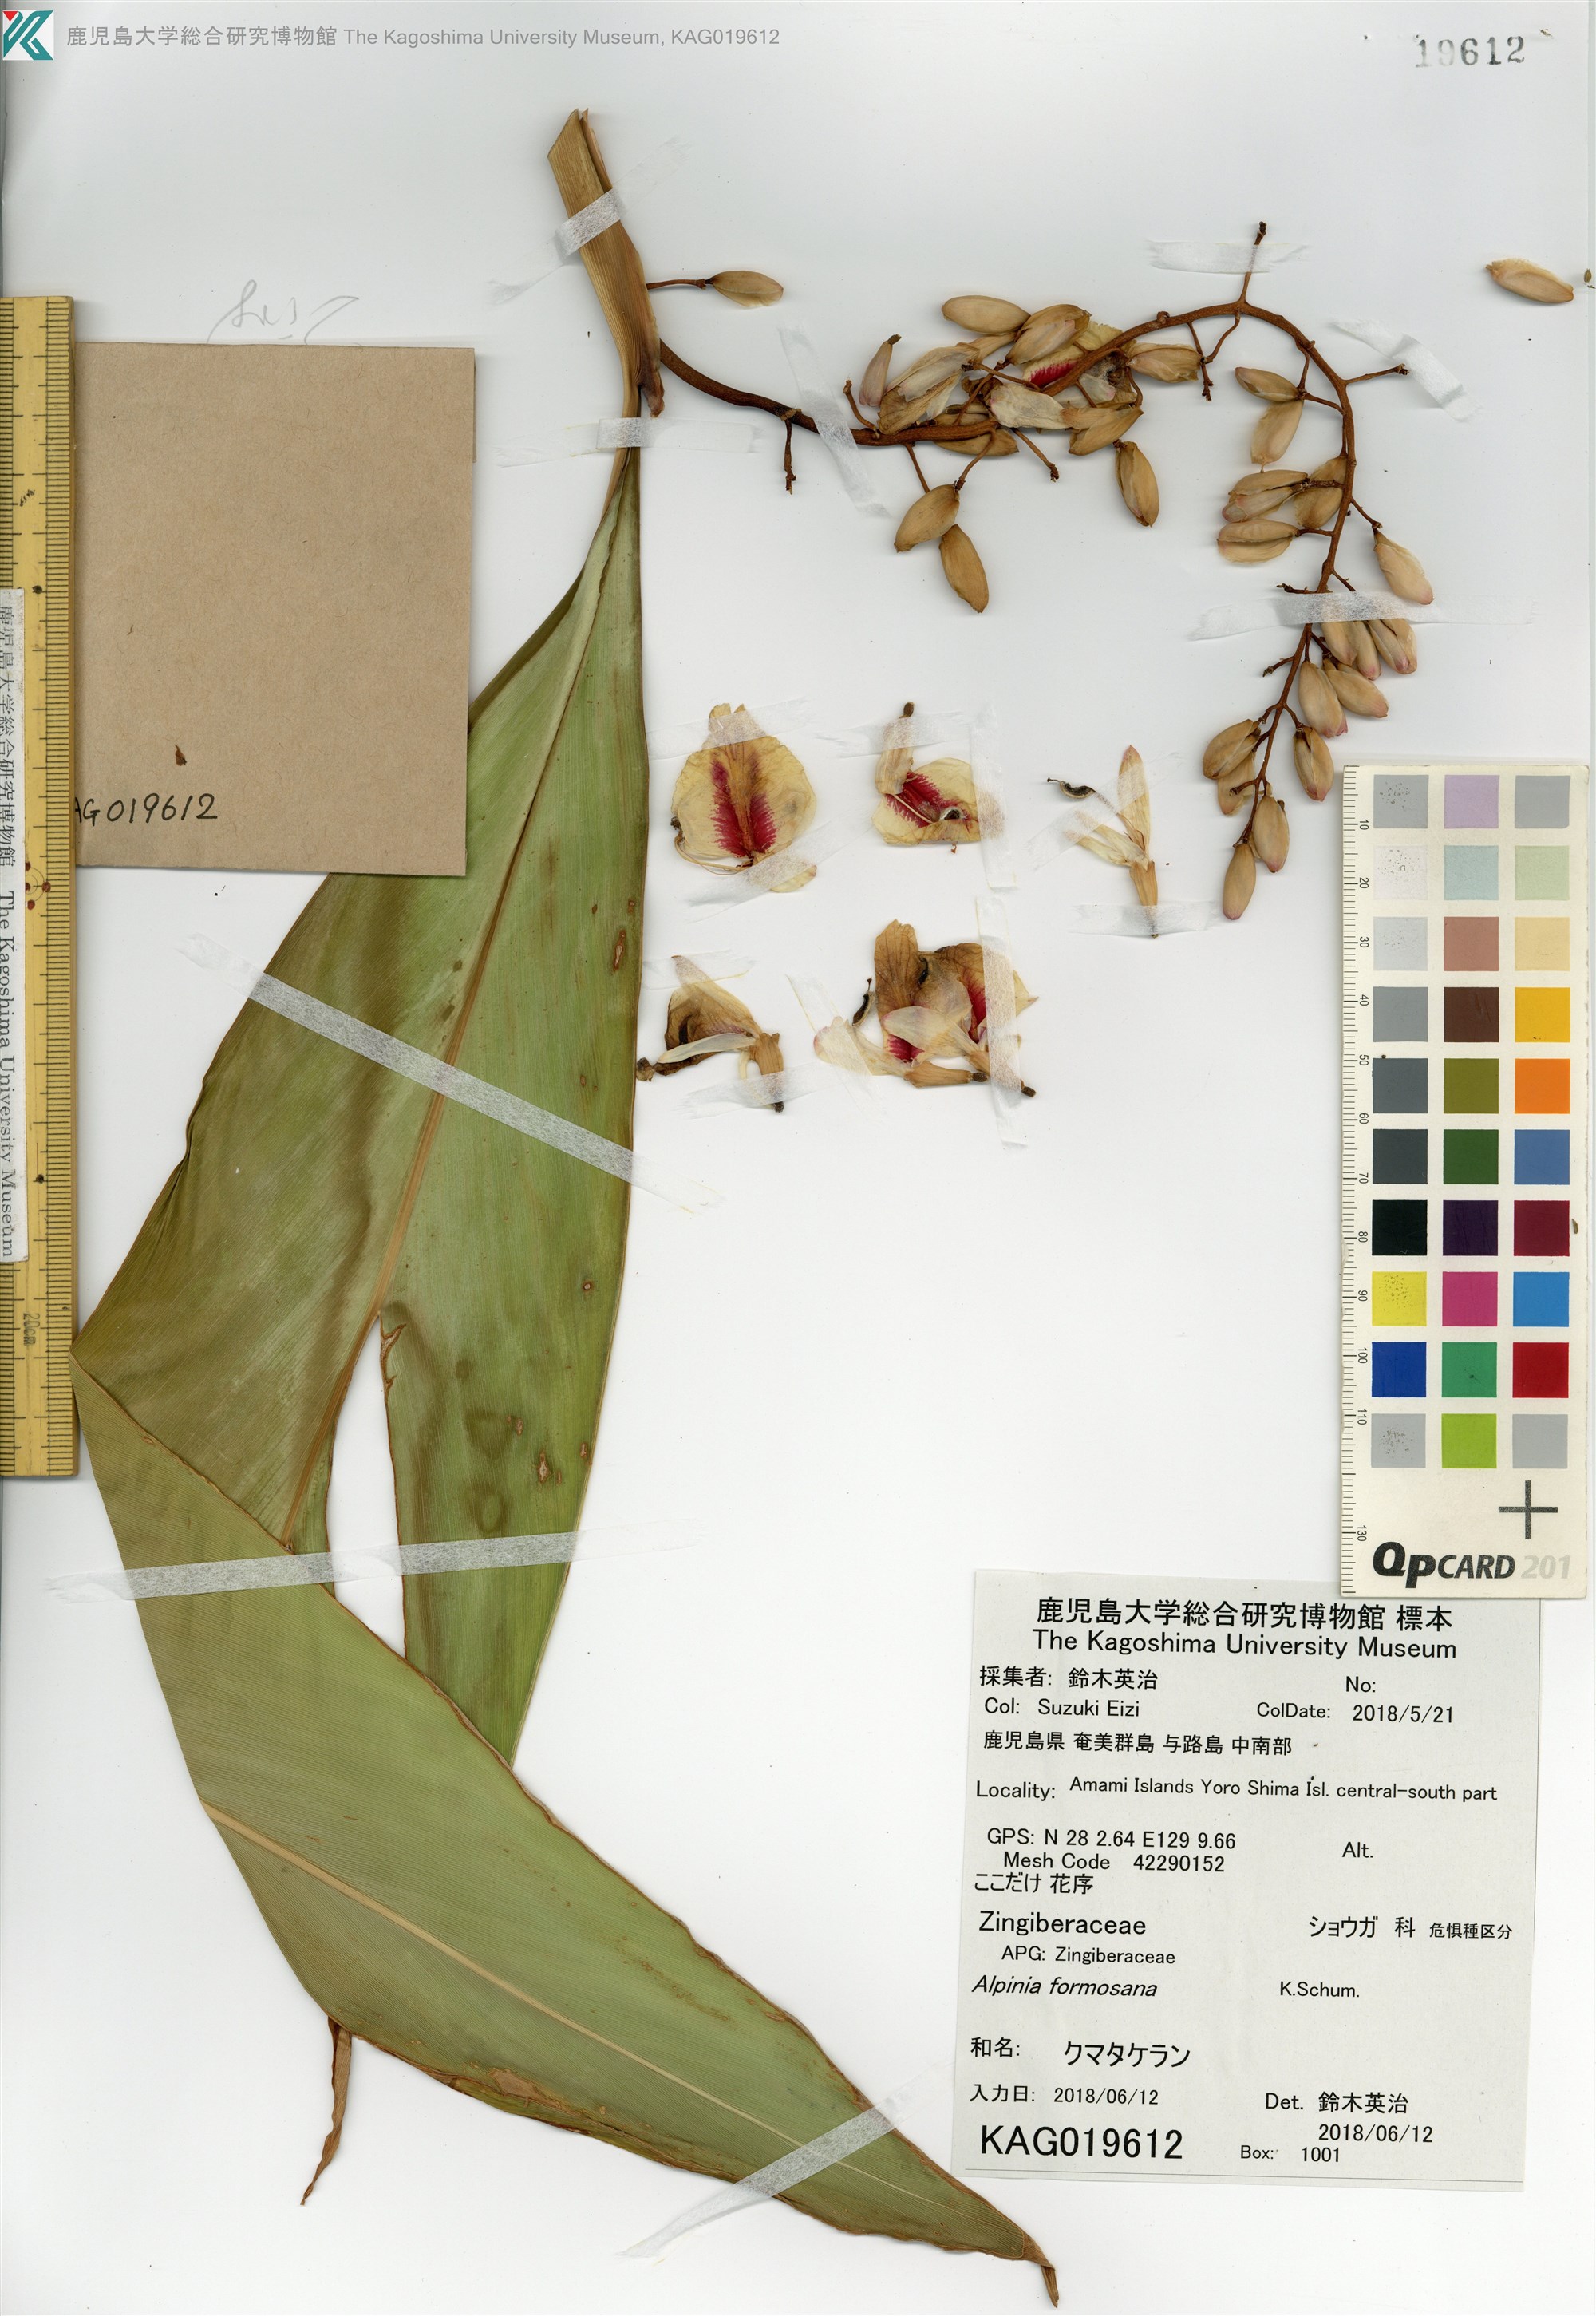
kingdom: Plantae
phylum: Tracheophyta
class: Liliopsida
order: Zingiberales
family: Zingiberaceae
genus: Alpinia
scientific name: Alpinia formosana
